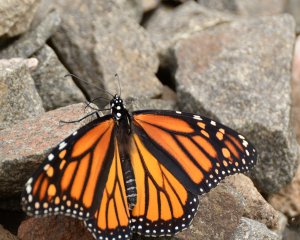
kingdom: Animalia
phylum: Arthropoda
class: Insecta
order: Lepidoptera
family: Nymphalidae
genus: Danaus
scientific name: Danaus plexippus
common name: Monarch
